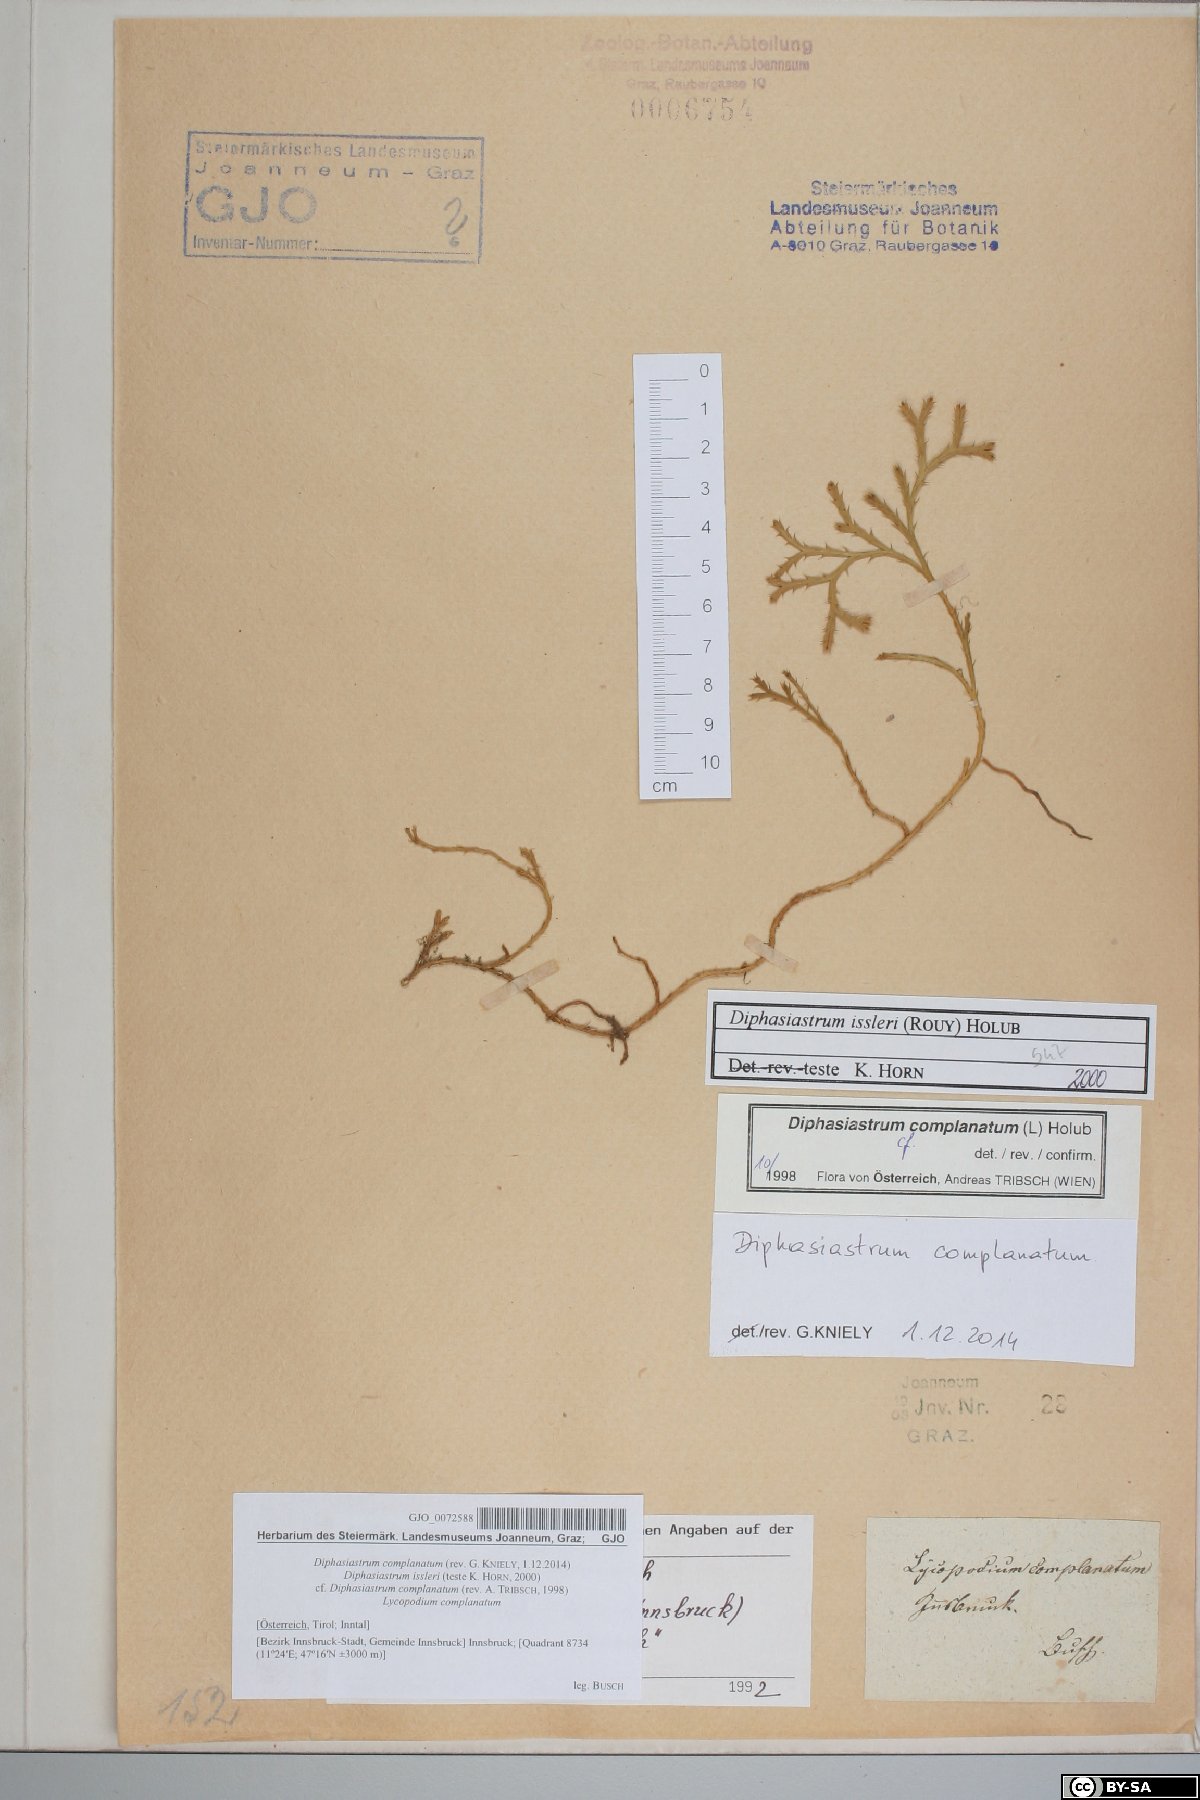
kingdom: Plantae
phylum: Tracheophyta
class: Lycopodiopsida
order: Lycopodiales
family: Lycopodiaceae
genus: Diphasiastrum
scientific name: Diphasiastrum complanatum
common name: Northern running-pine
